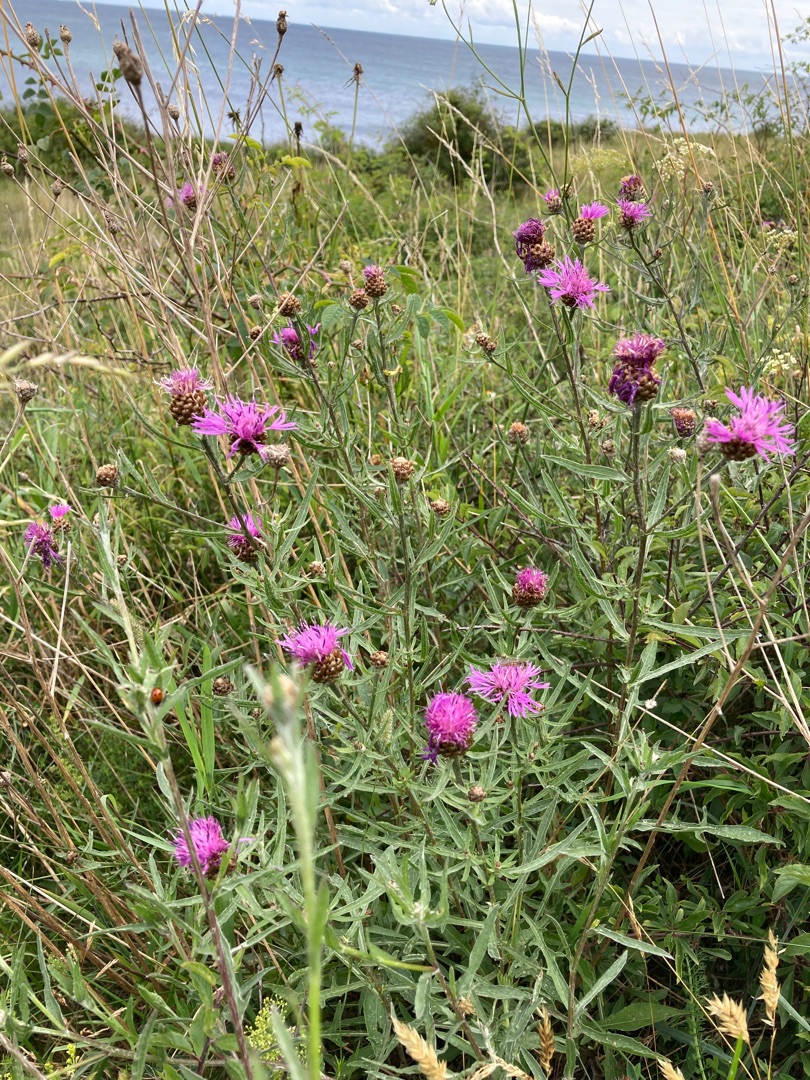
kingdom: Plantae
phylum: Tracheophyta
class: Magnoliopsida
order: Asterales
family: Asteraceae
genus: Centaurea
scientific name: Centaurea jacea
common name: Almindelig knopurt
